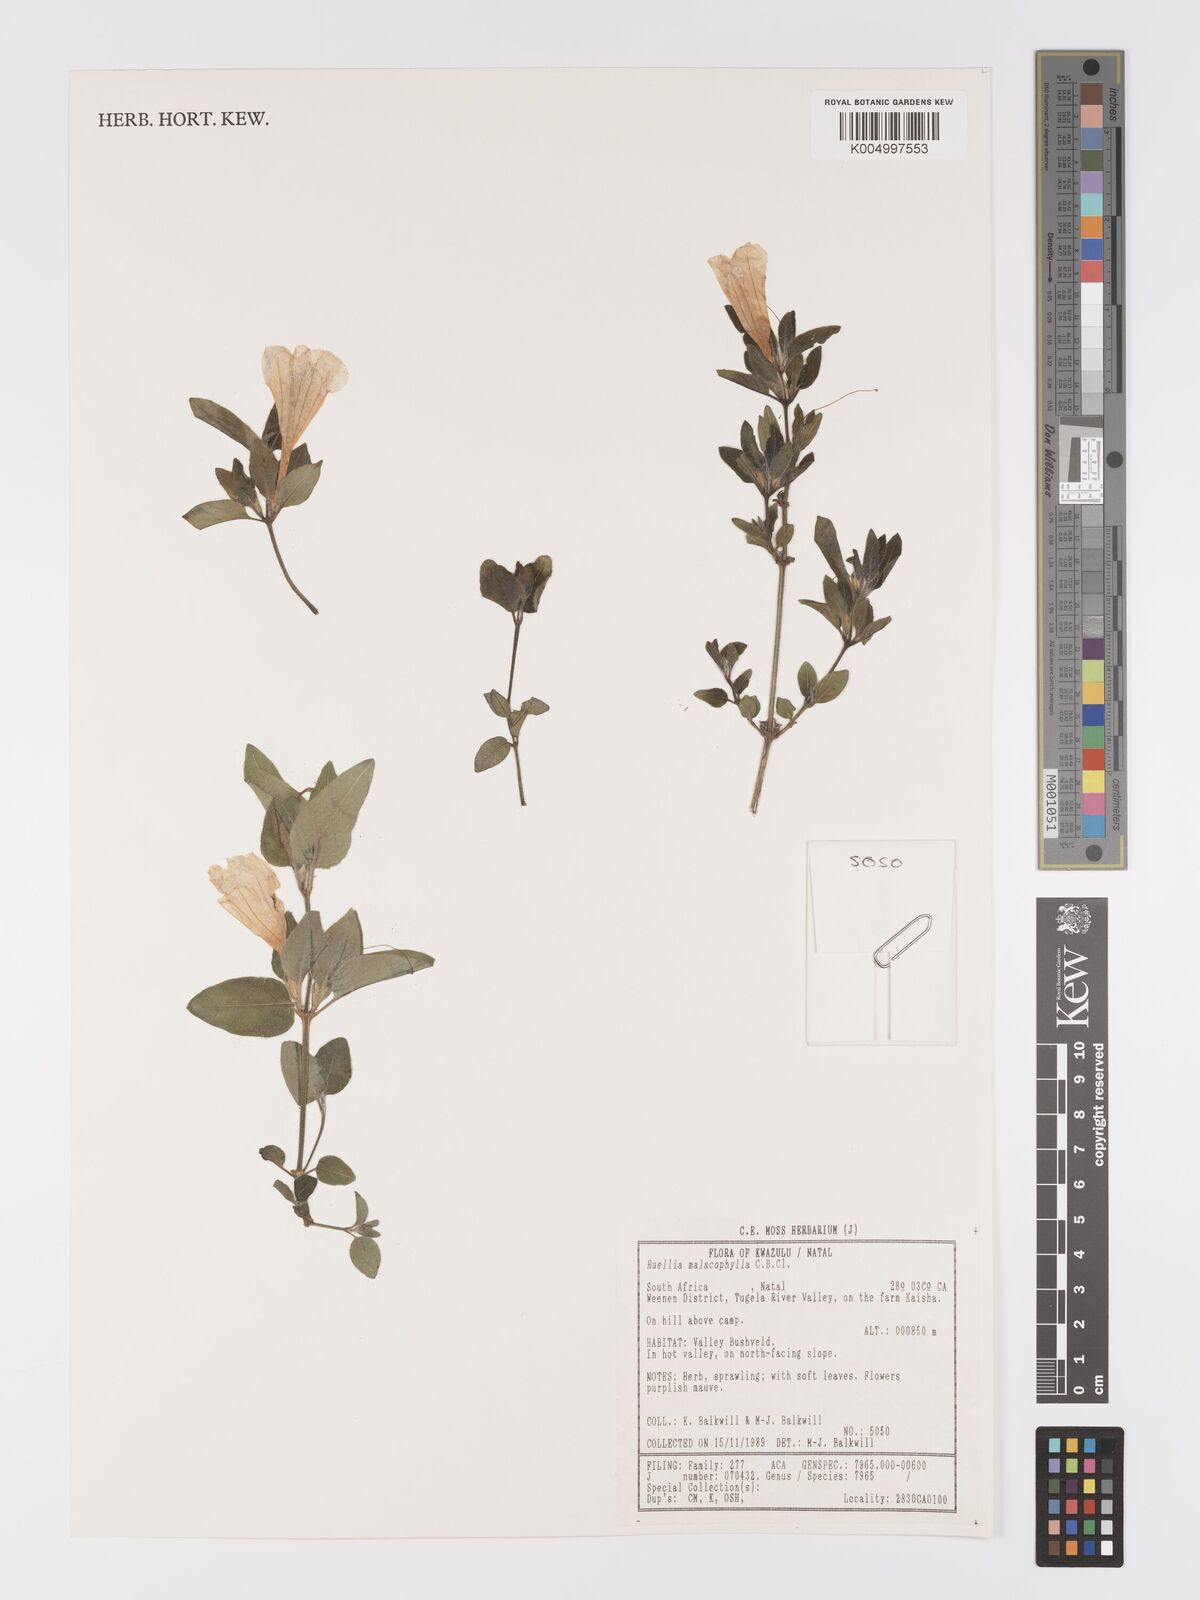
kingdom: Plantae
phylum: Tracheophyta
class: Magnoliopsida
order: Lamiales
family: Acanthaceae
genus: Crabbea
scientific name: Crabbea velutina
